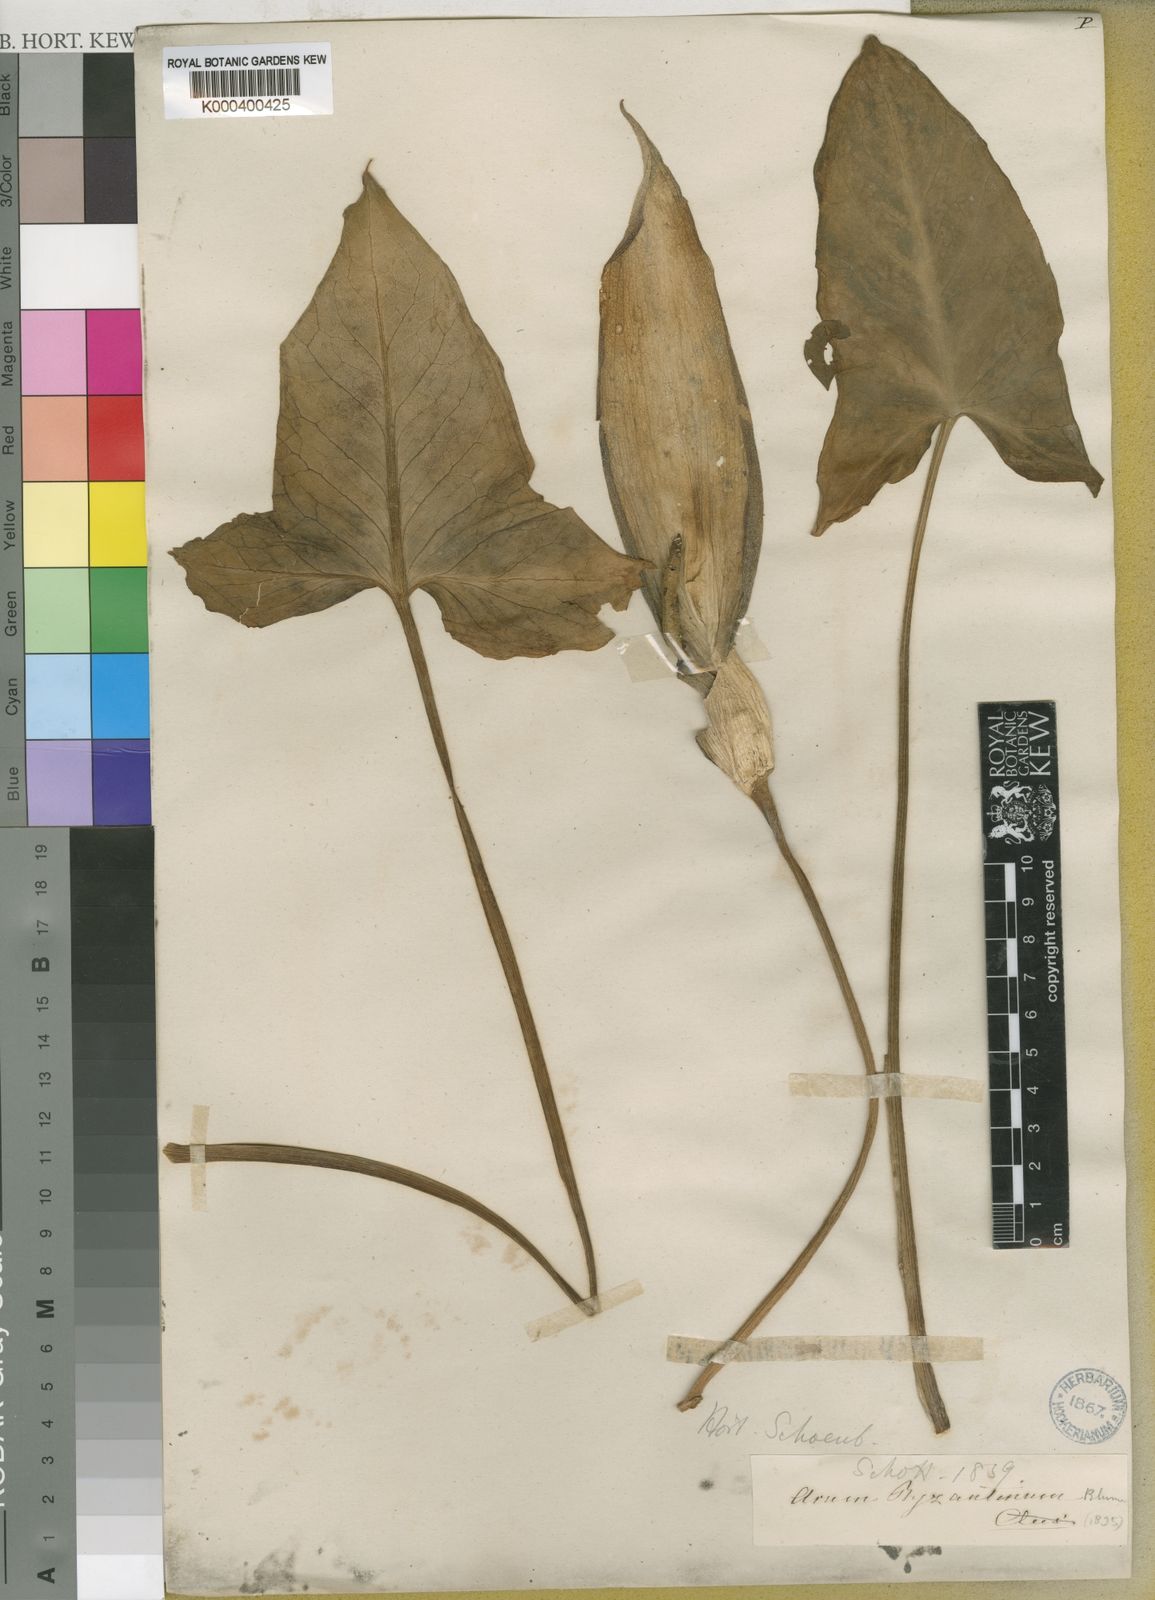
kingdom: Plantae
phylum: Tracheophyta
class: Liliopsida
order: Alismatales
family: Araceae
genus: Arum
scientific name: Arum maculatum
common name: Lords-and-ladies
